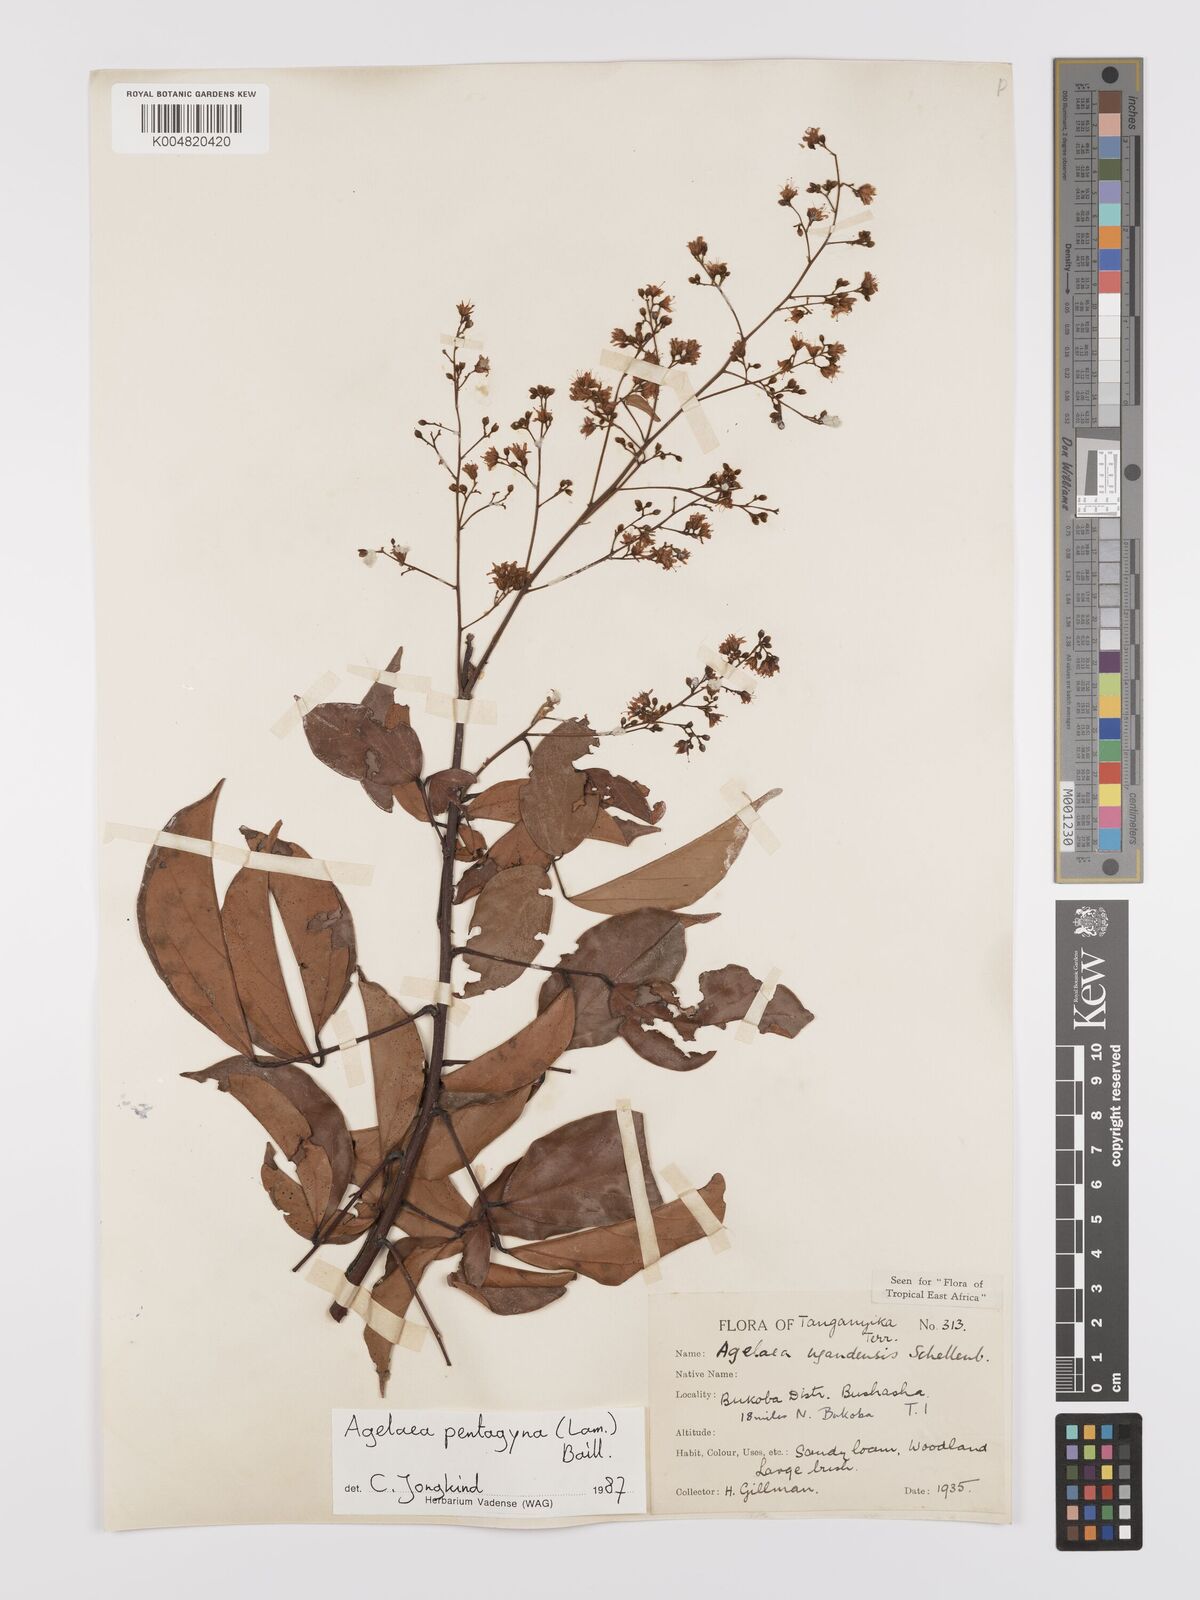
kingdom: Plantae
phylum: Tracheophyta
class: Magnoliopsida
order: Oxalidales
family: Connaraceae
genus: Agelaea
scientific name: Agelaea pentagyna
